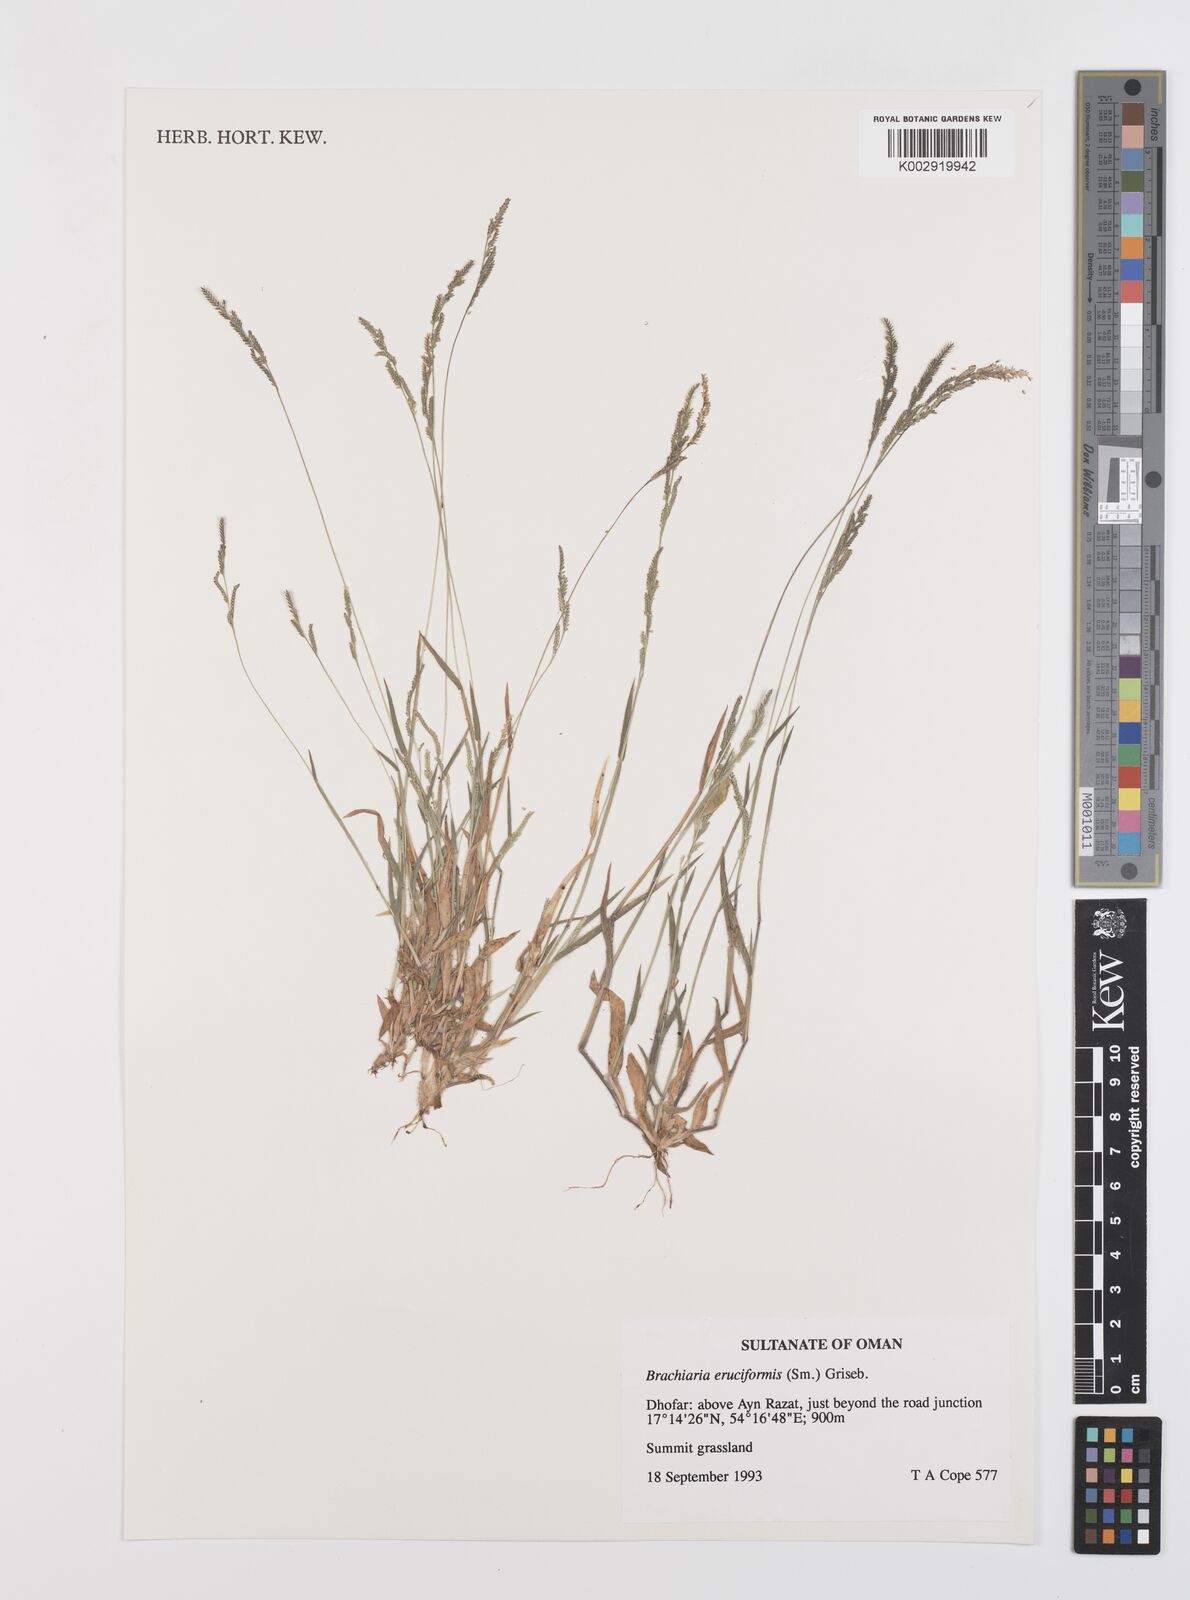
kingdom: Plantae
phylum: Tracheophyta
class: Liliopsida
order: Poales
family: Poaceae
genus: Moorochloa
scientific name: Moorochloa eruciformis
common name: Sweet signalgrass
